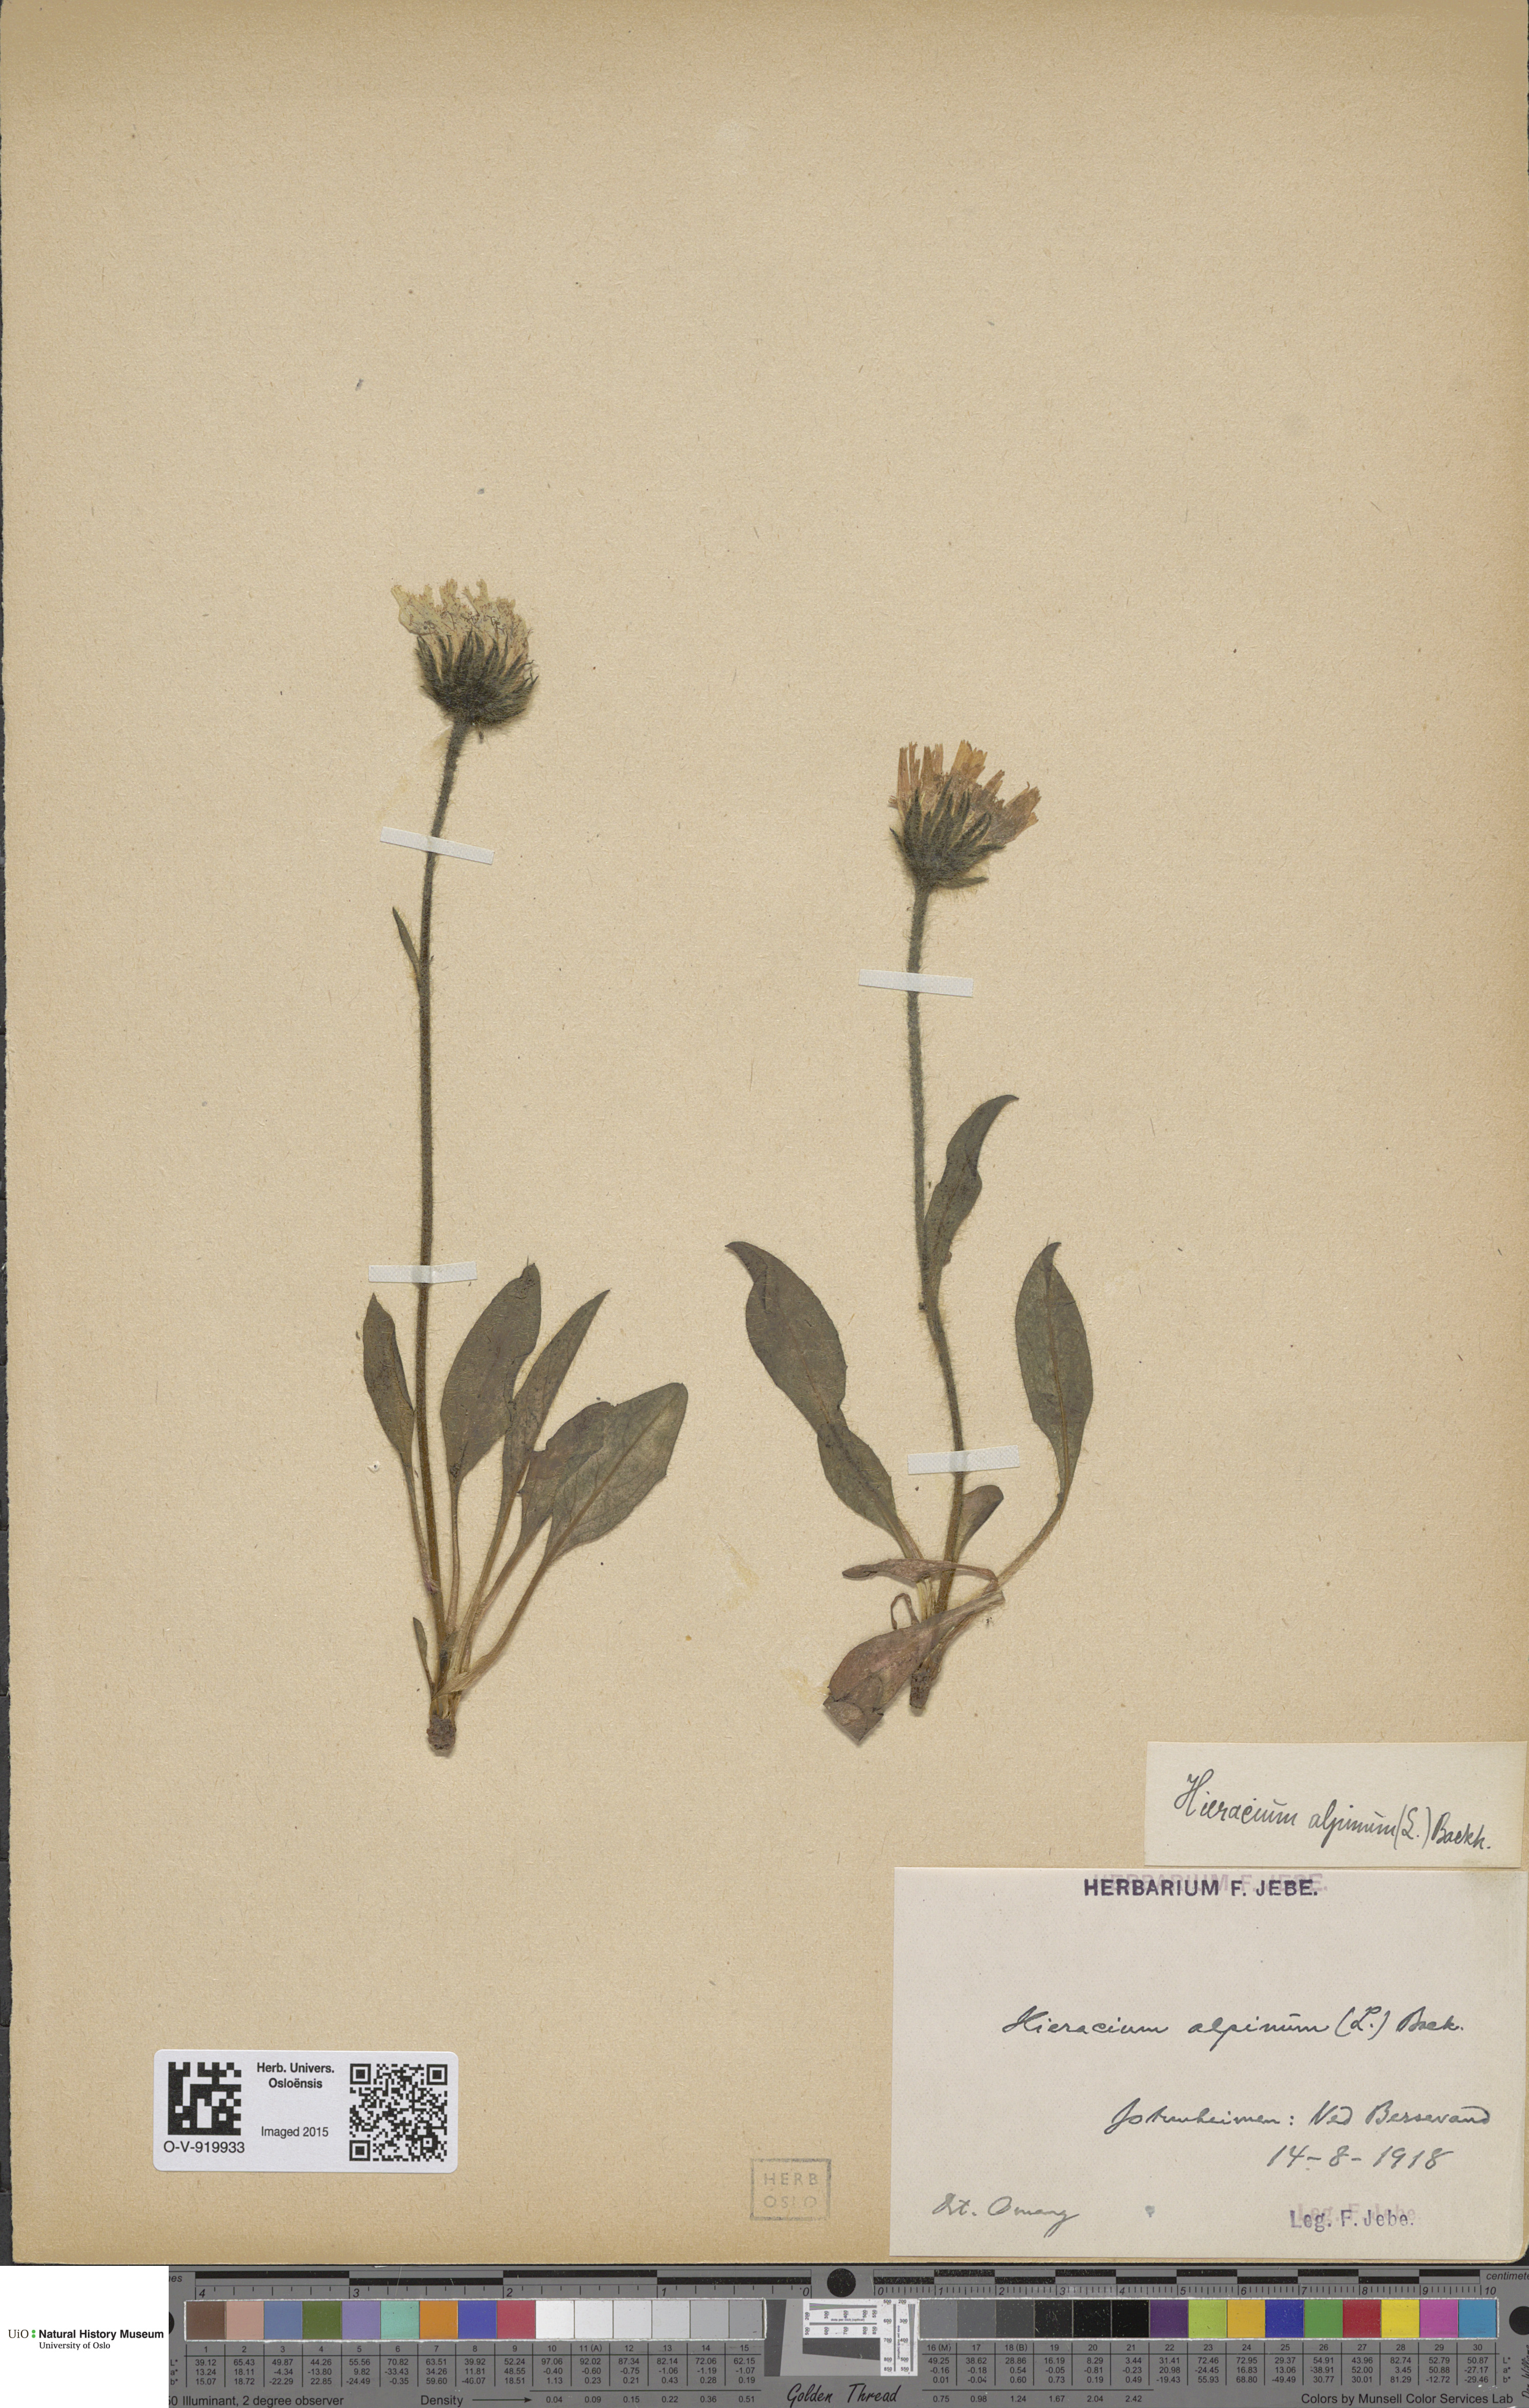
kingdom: Plantae
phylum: Tracheophyta
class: Magnoliopsida
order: Asterales
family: Asteraceae
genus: Hieracium
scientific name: Hieracium alpinum
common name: Alpine hawkweed
